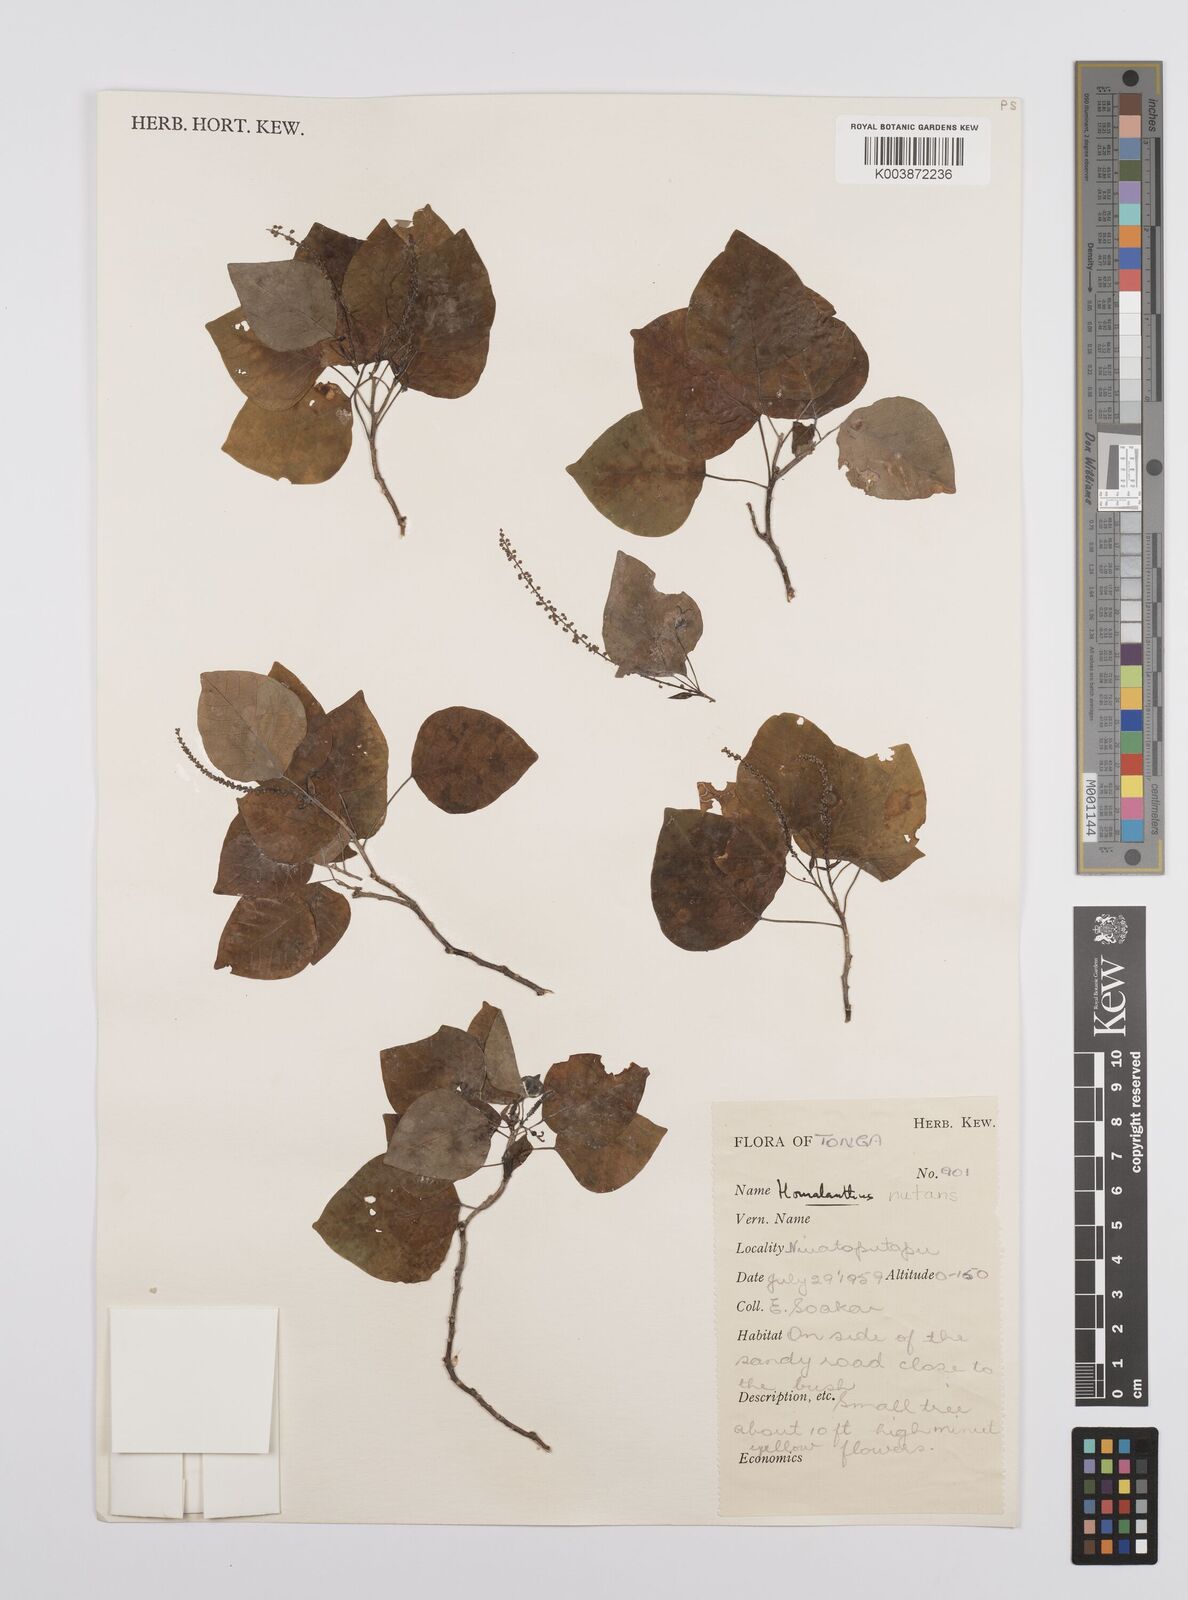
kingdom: Plantae
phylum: Tracheophyta
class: Magnoliopsida
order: Malpighiales
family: Euphorbiaceae
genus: Homalanthus
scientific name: Homalanthus nutans
